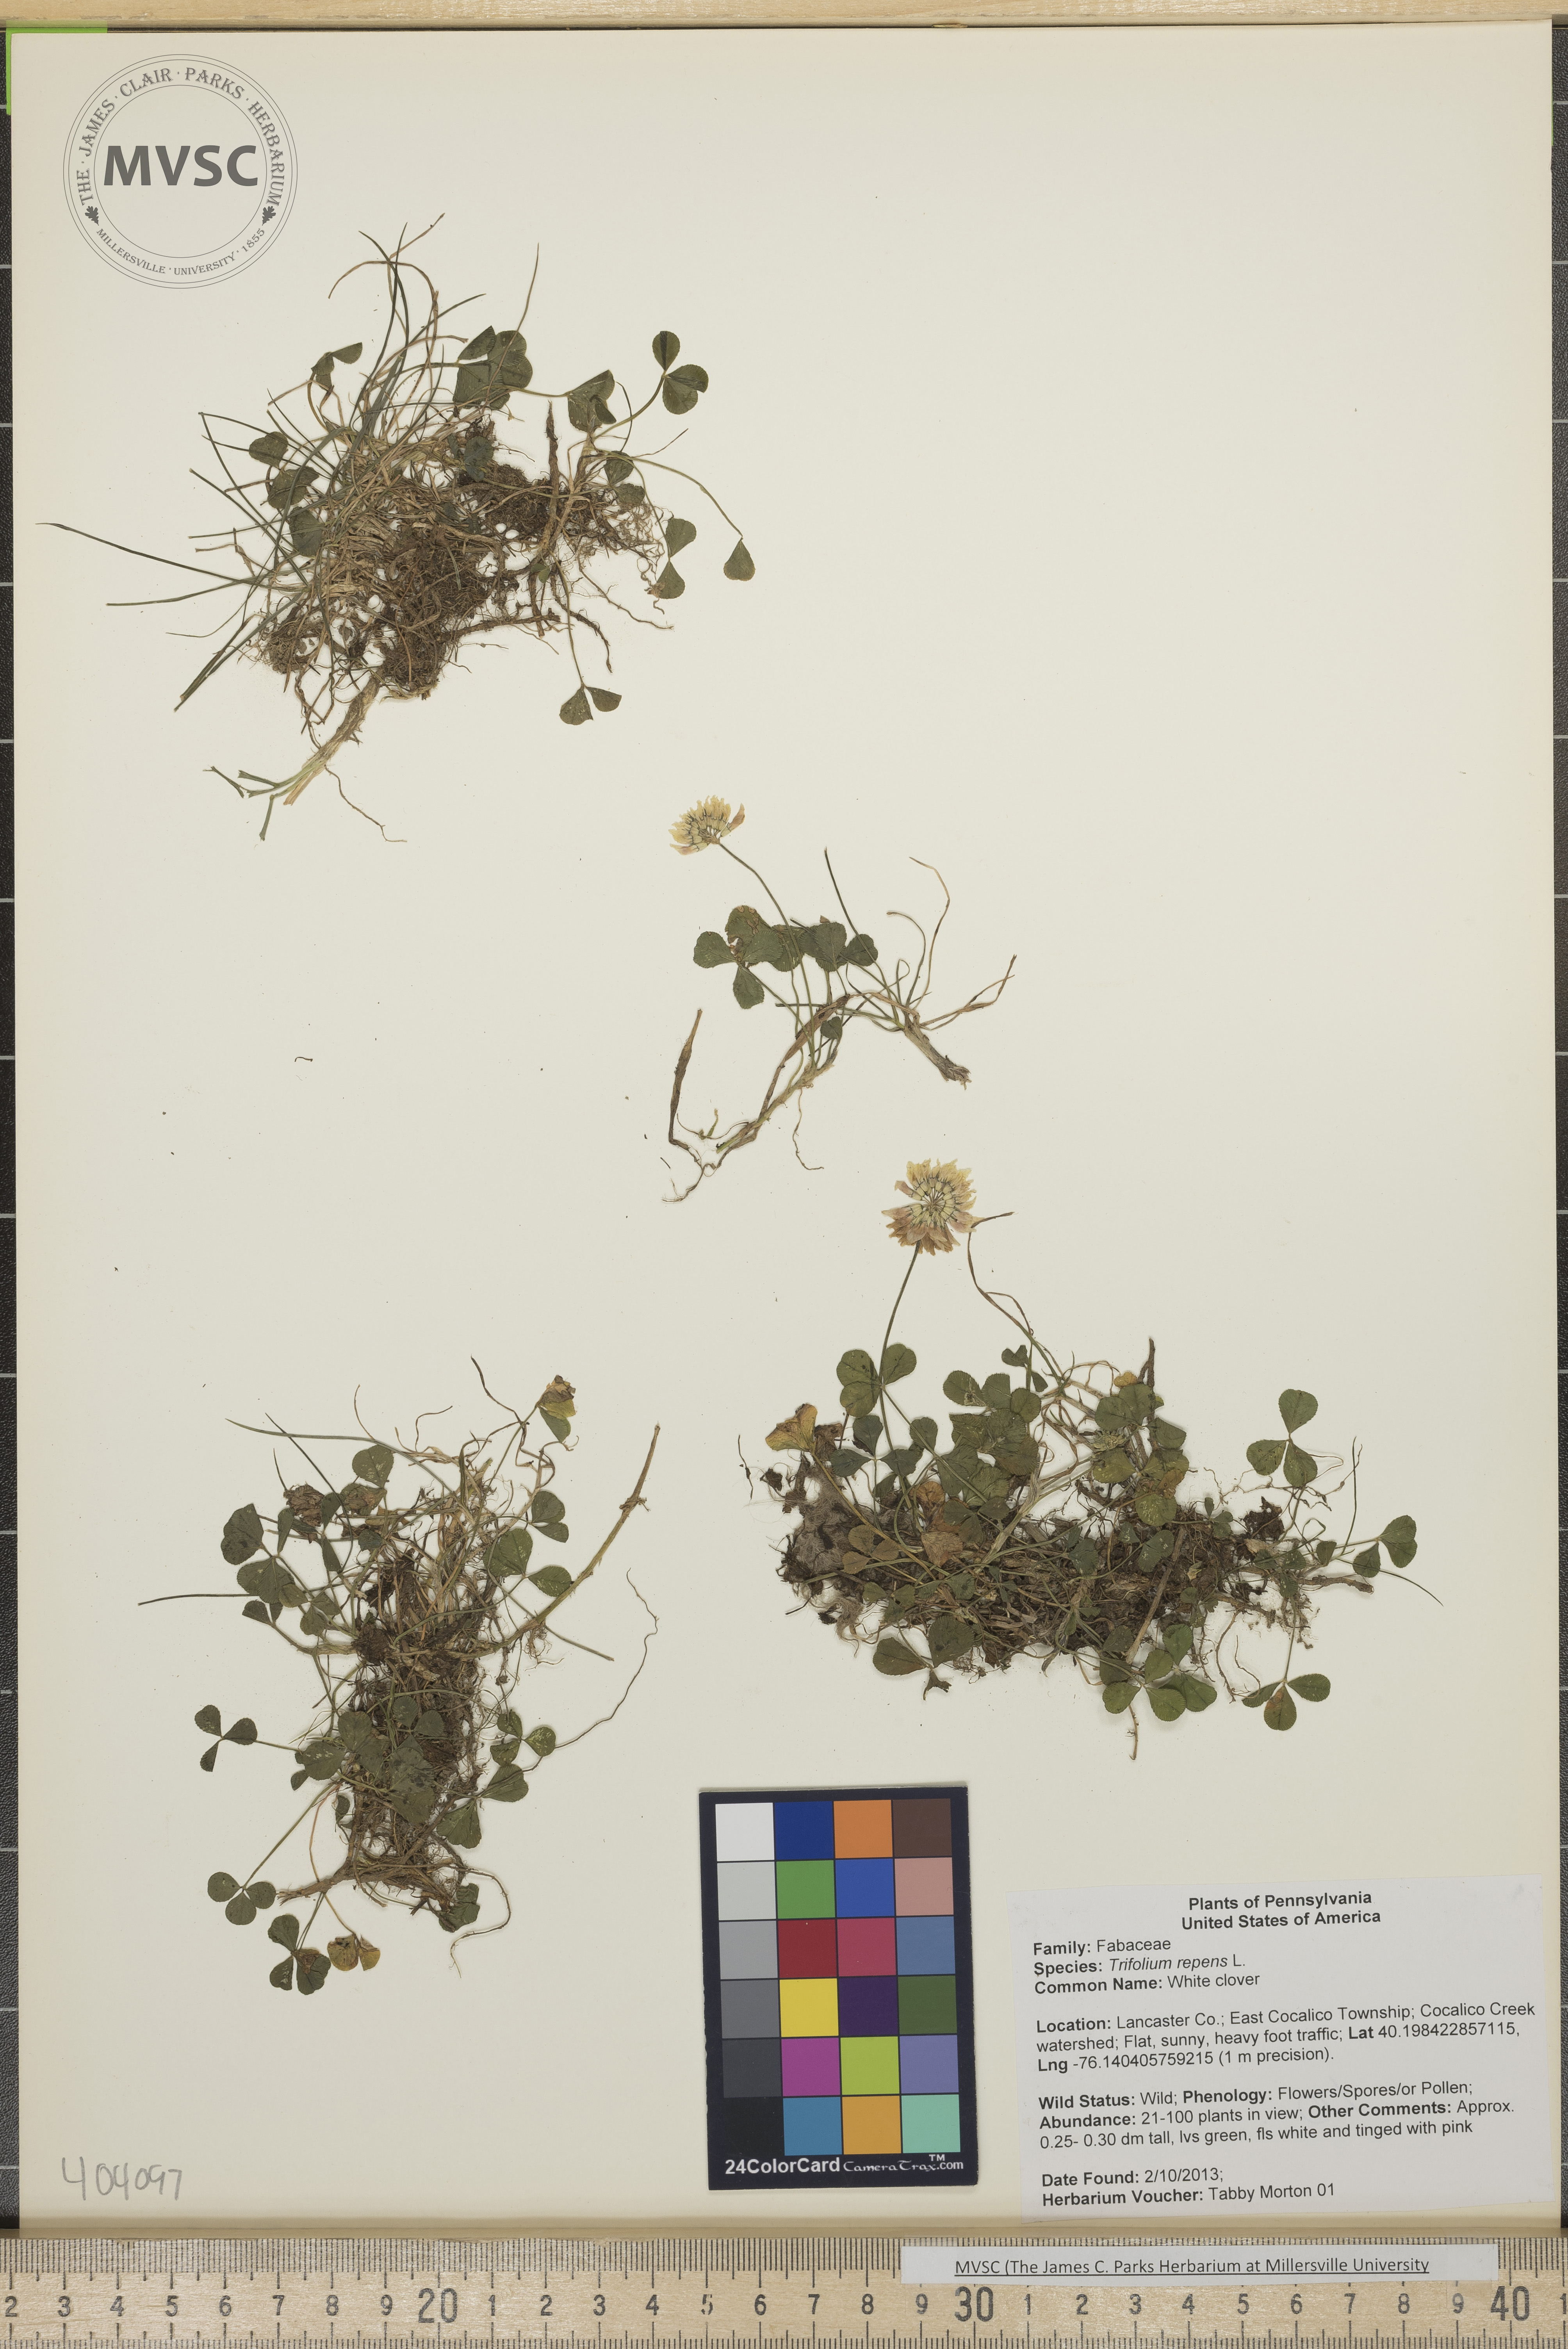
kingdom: Plantae
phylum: Tracheophyta
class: Magnoliopsida
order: Fabales
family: Fabaceae
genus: Trifolium
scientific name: Trifolium repens
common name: White clover
